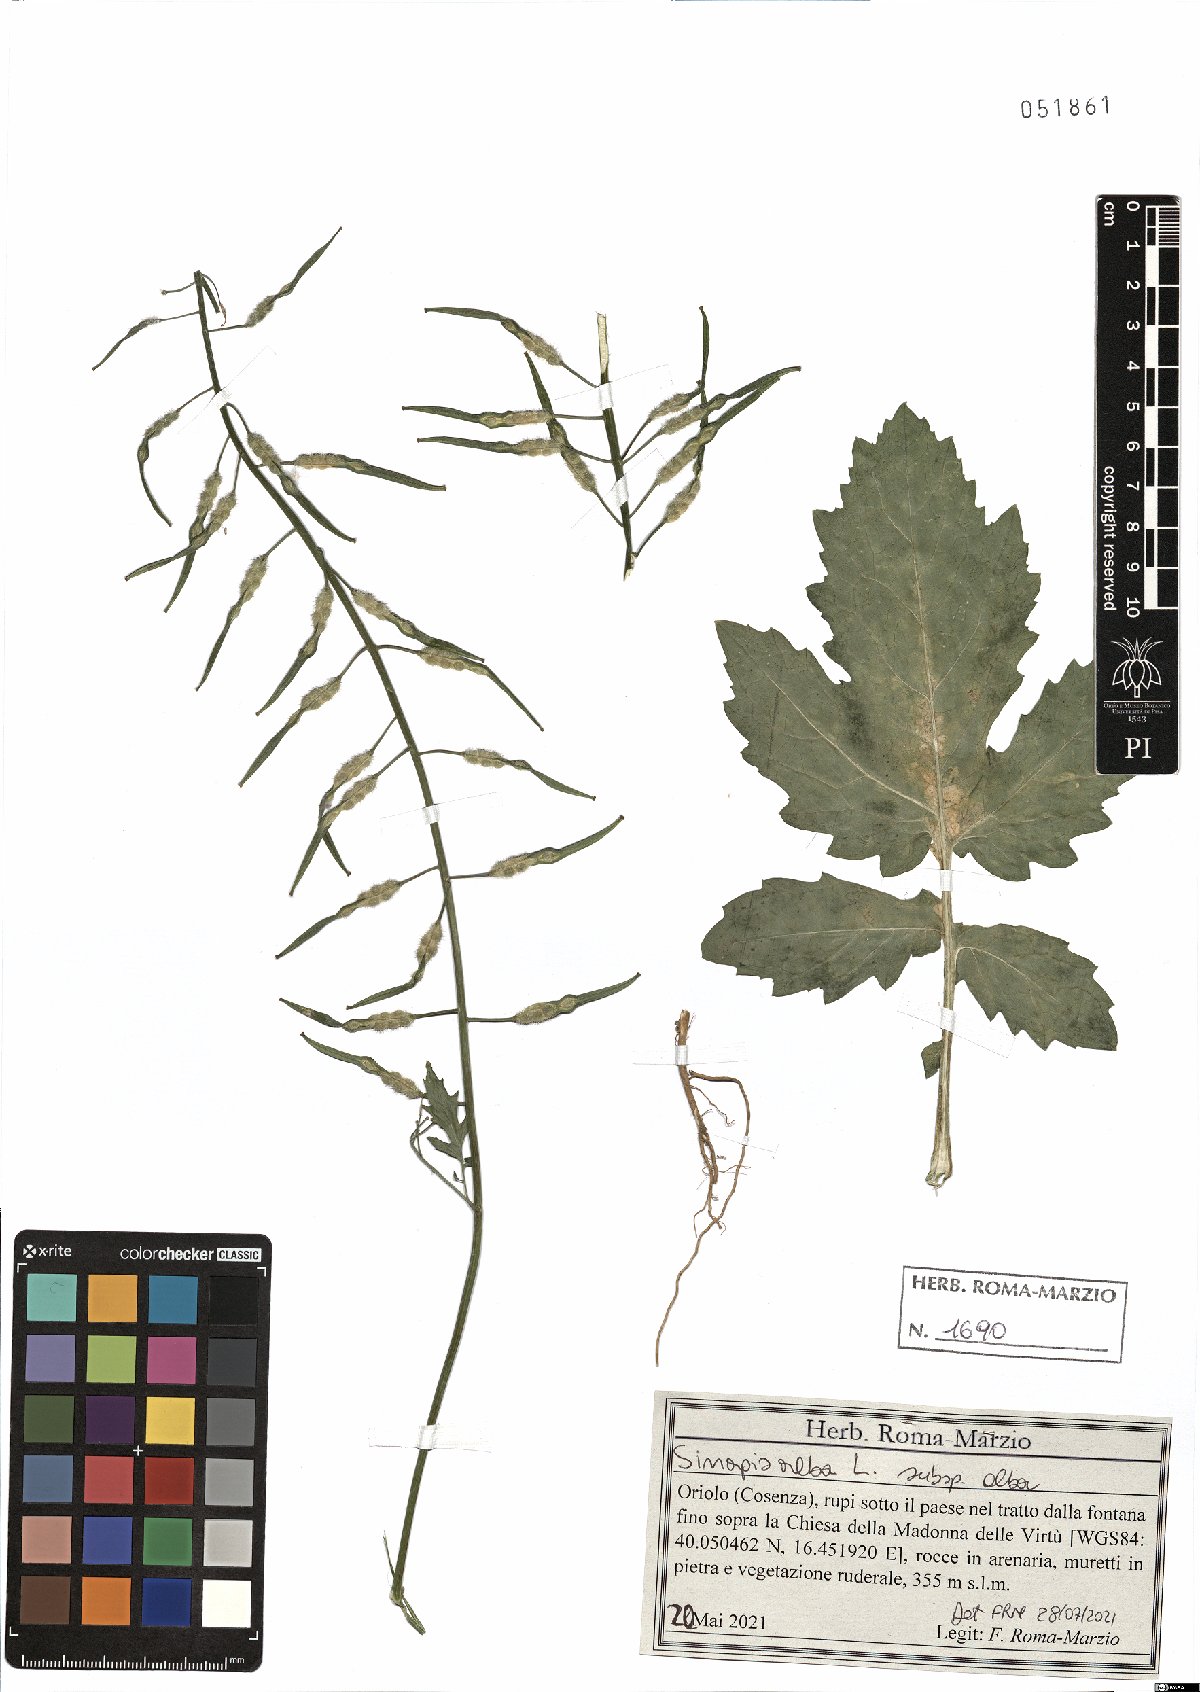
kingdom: Plantae
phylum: Tracheophyta
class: Magnoliopsida
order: Brassicales
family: Brassicaceae
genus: Sinapis
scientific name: Sinapis alba
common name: White mustard
